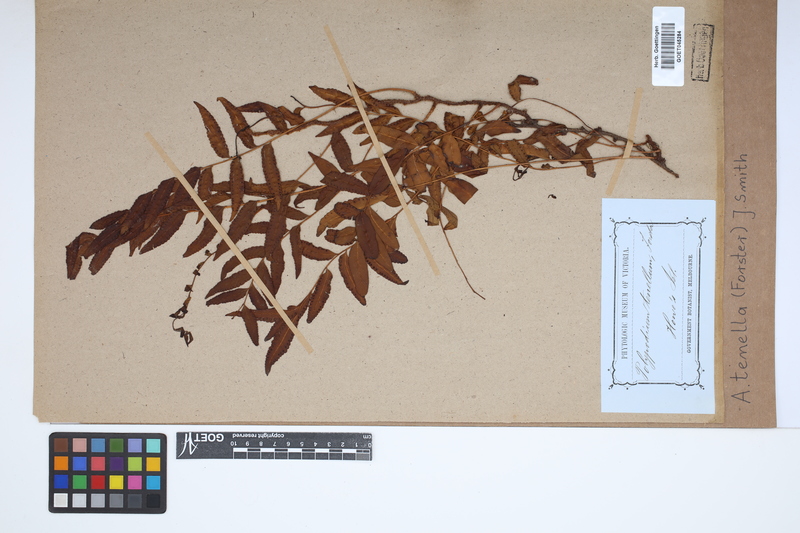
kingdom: Plantae
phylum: Tracheophyta
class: Polypodiopsida
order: Polypodiales
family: Tectariaceae
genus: Arthropteris
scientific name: Arthropteris tenella
